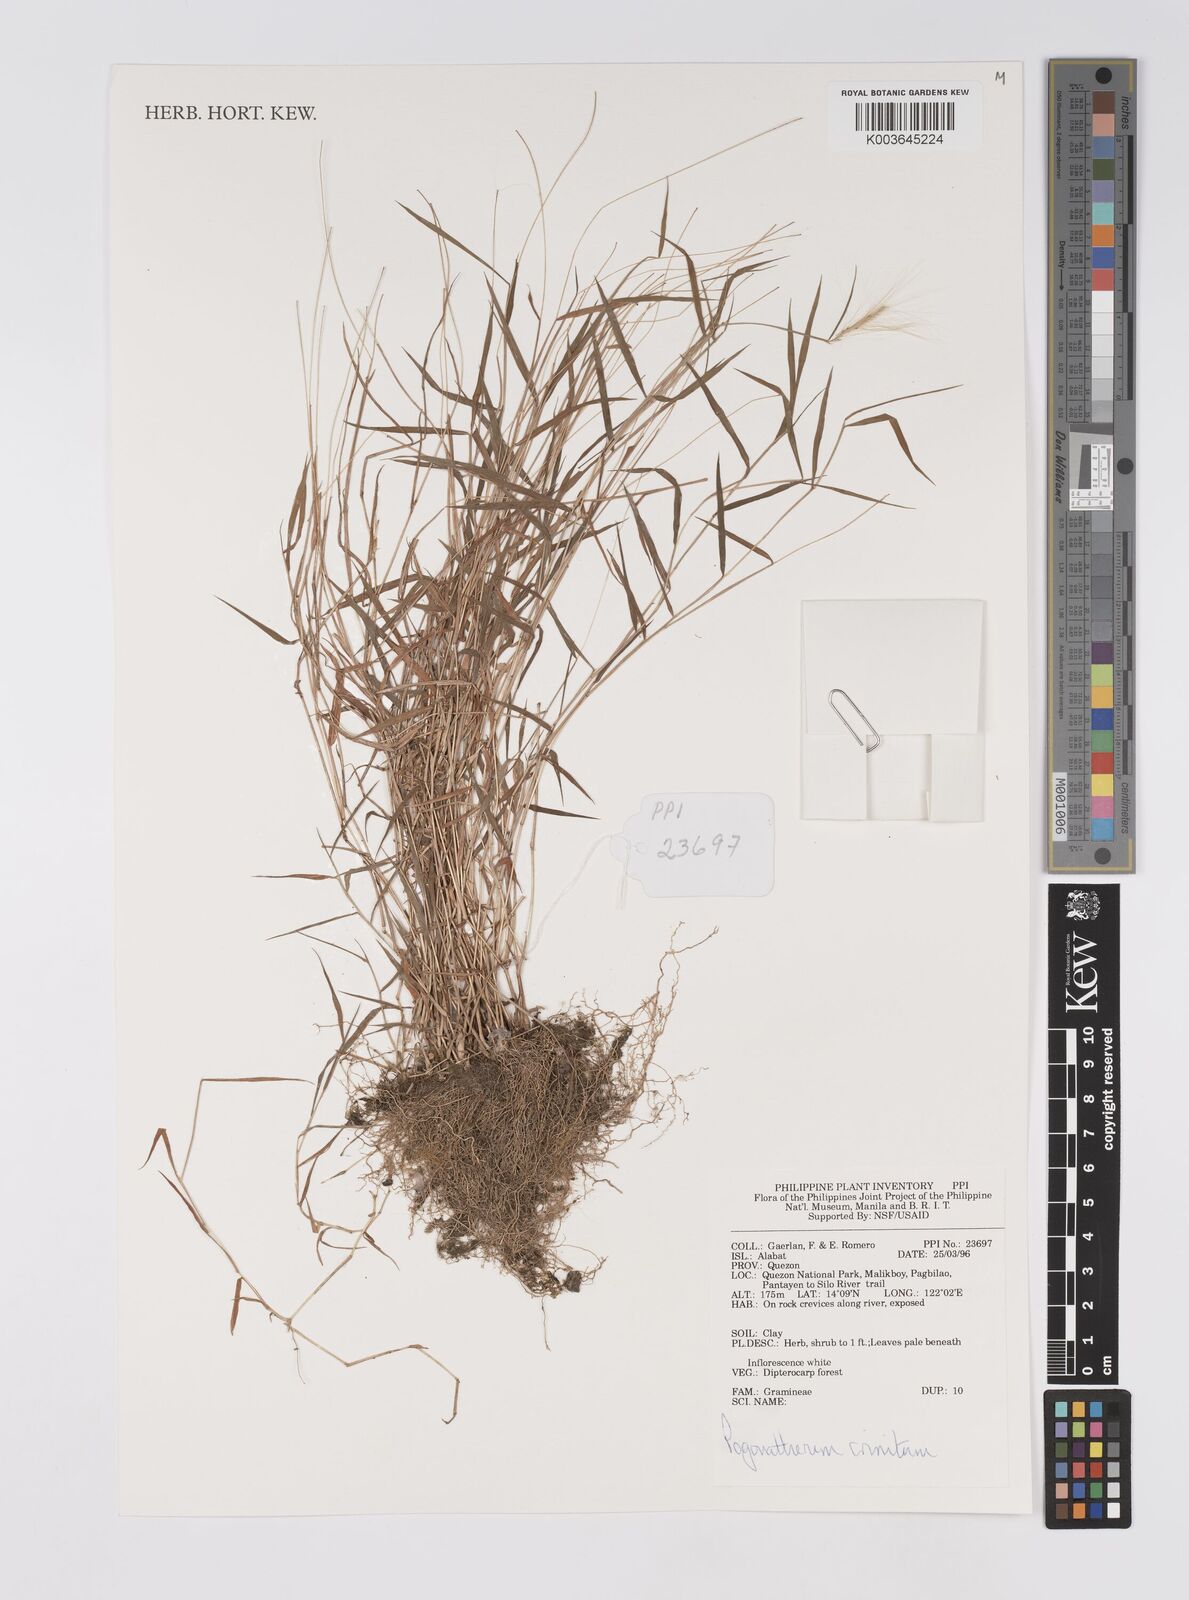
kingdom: Plantae
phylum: Tracheophyta
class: Liliopsida
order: Poales
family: Poaceae
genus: Pogonatherum
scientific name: Pogonatherum crinitum
